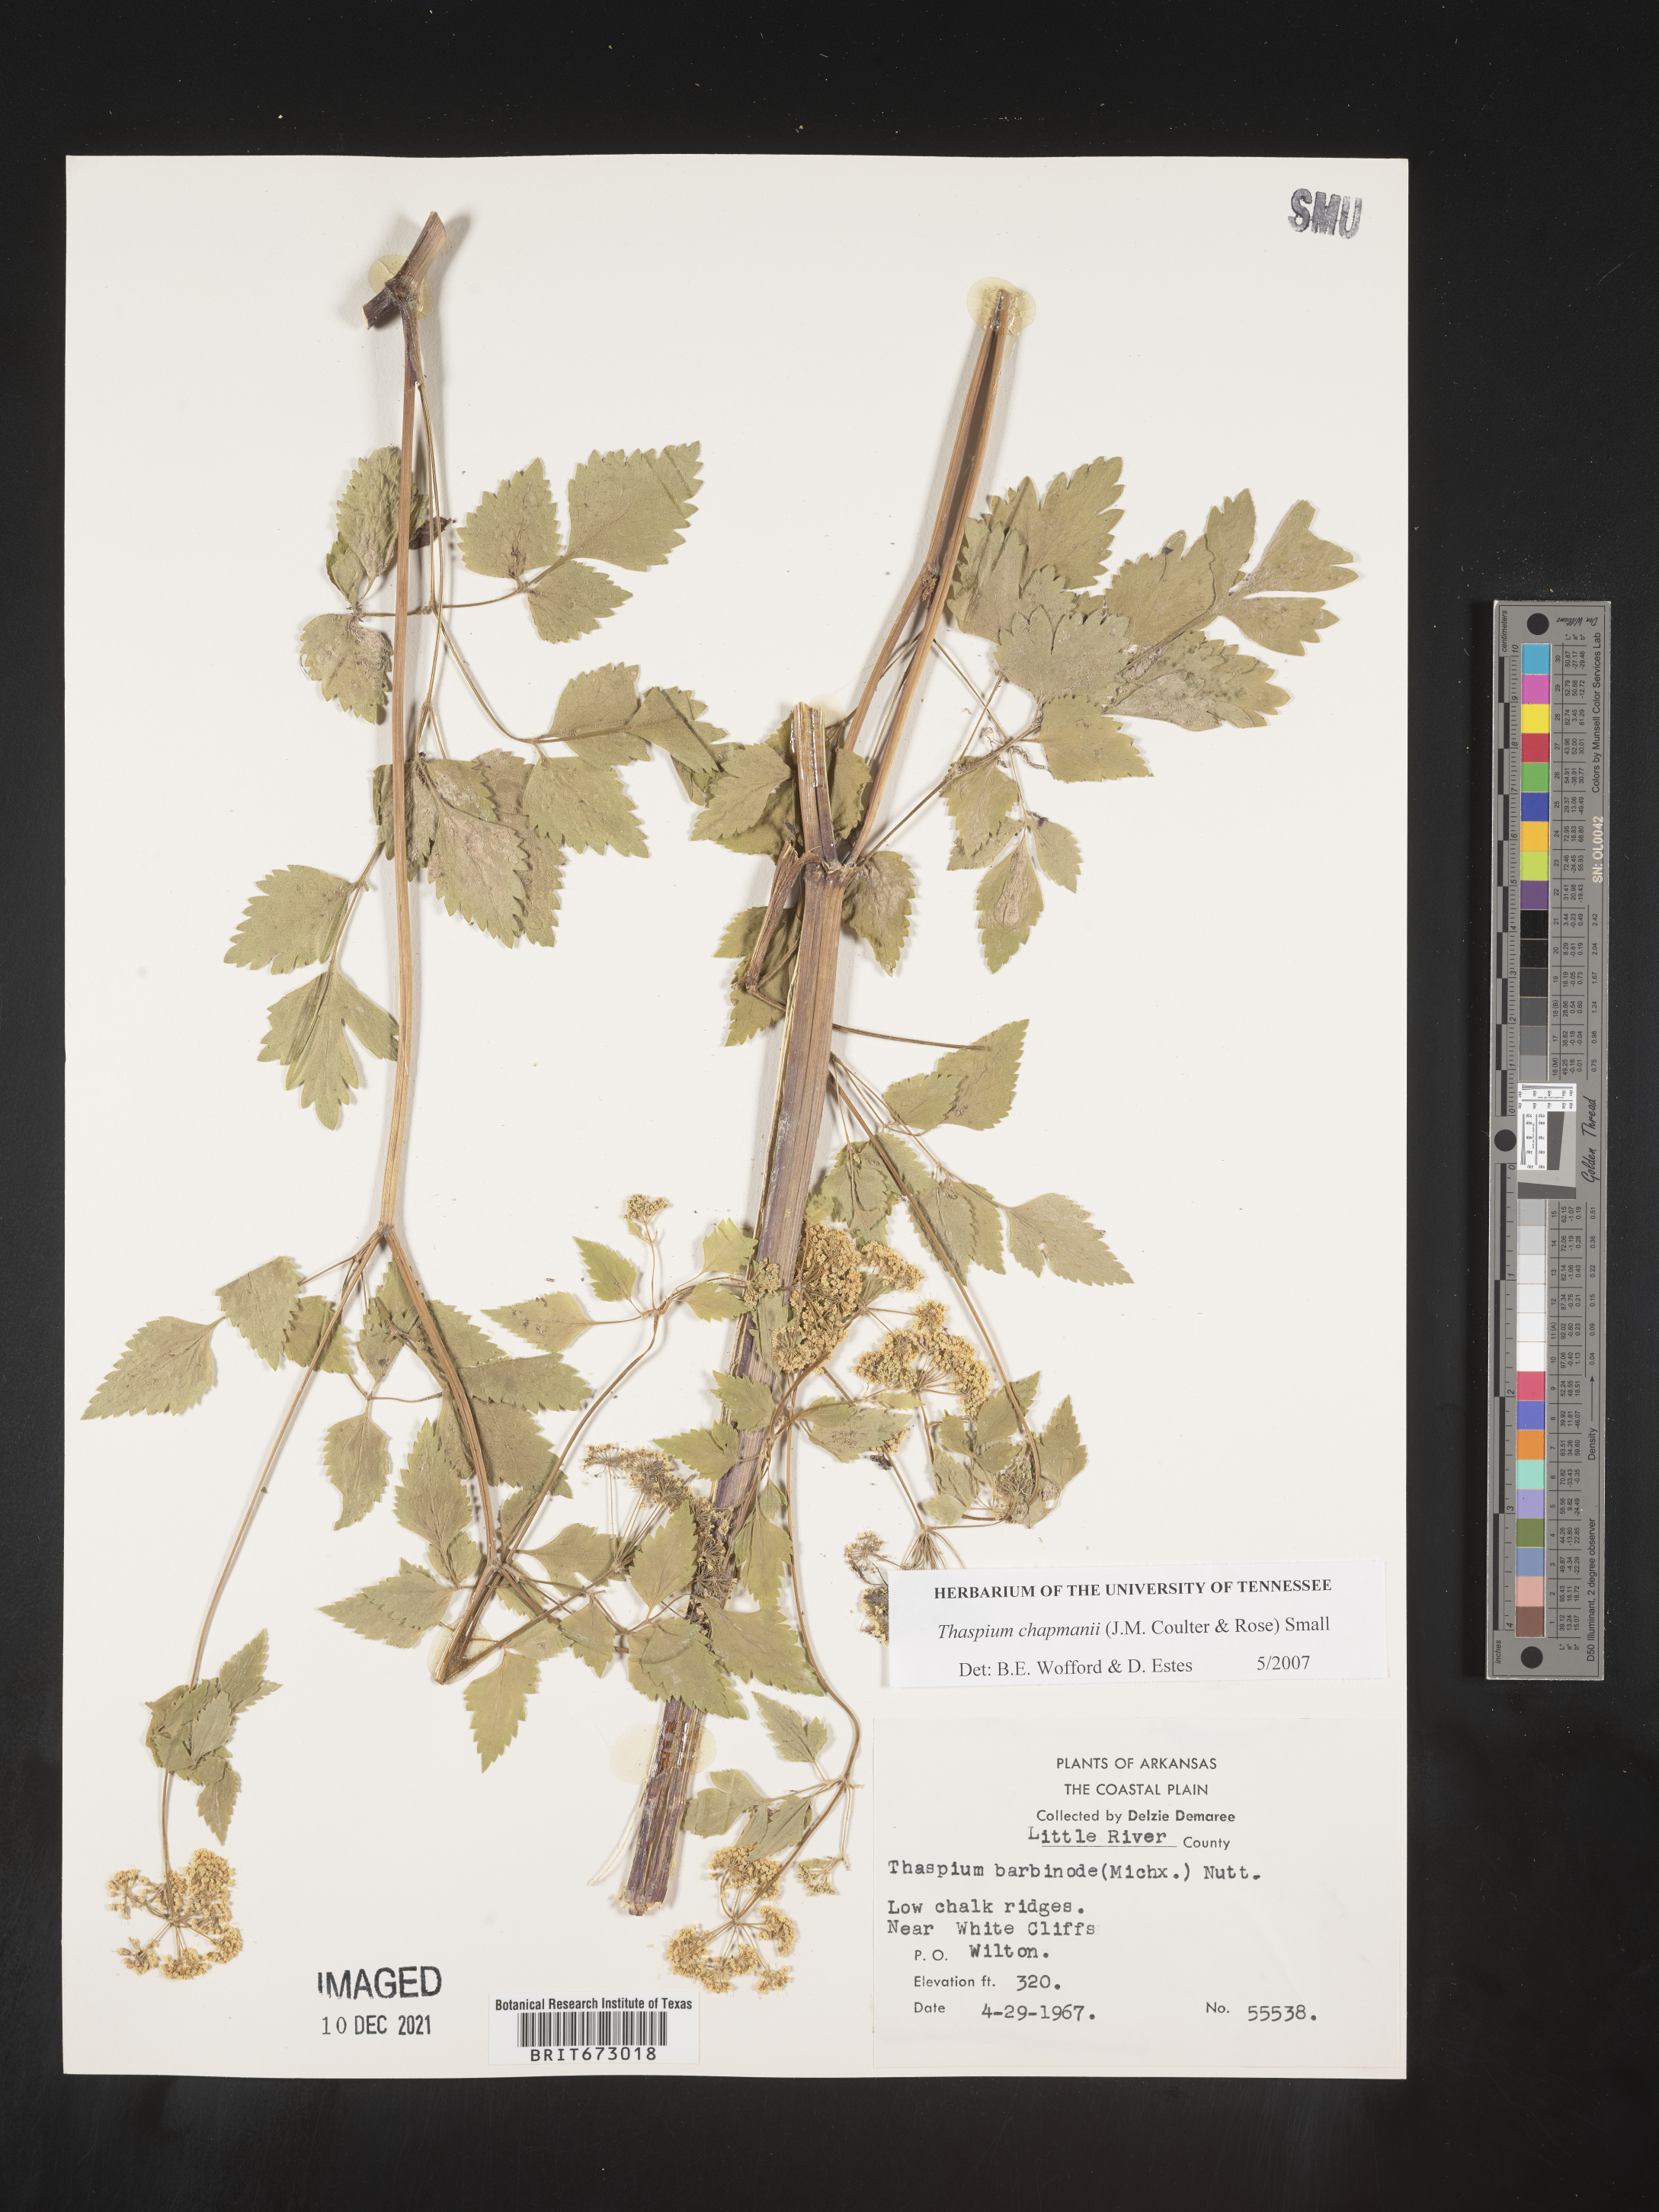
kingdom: Plantae
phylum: Tracheophyta
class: Magnoliopsida
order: Apiales
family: Apiaceae
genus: Thaspium
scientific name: Thaspium barbinode
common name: Bearded meadow-parsnip
